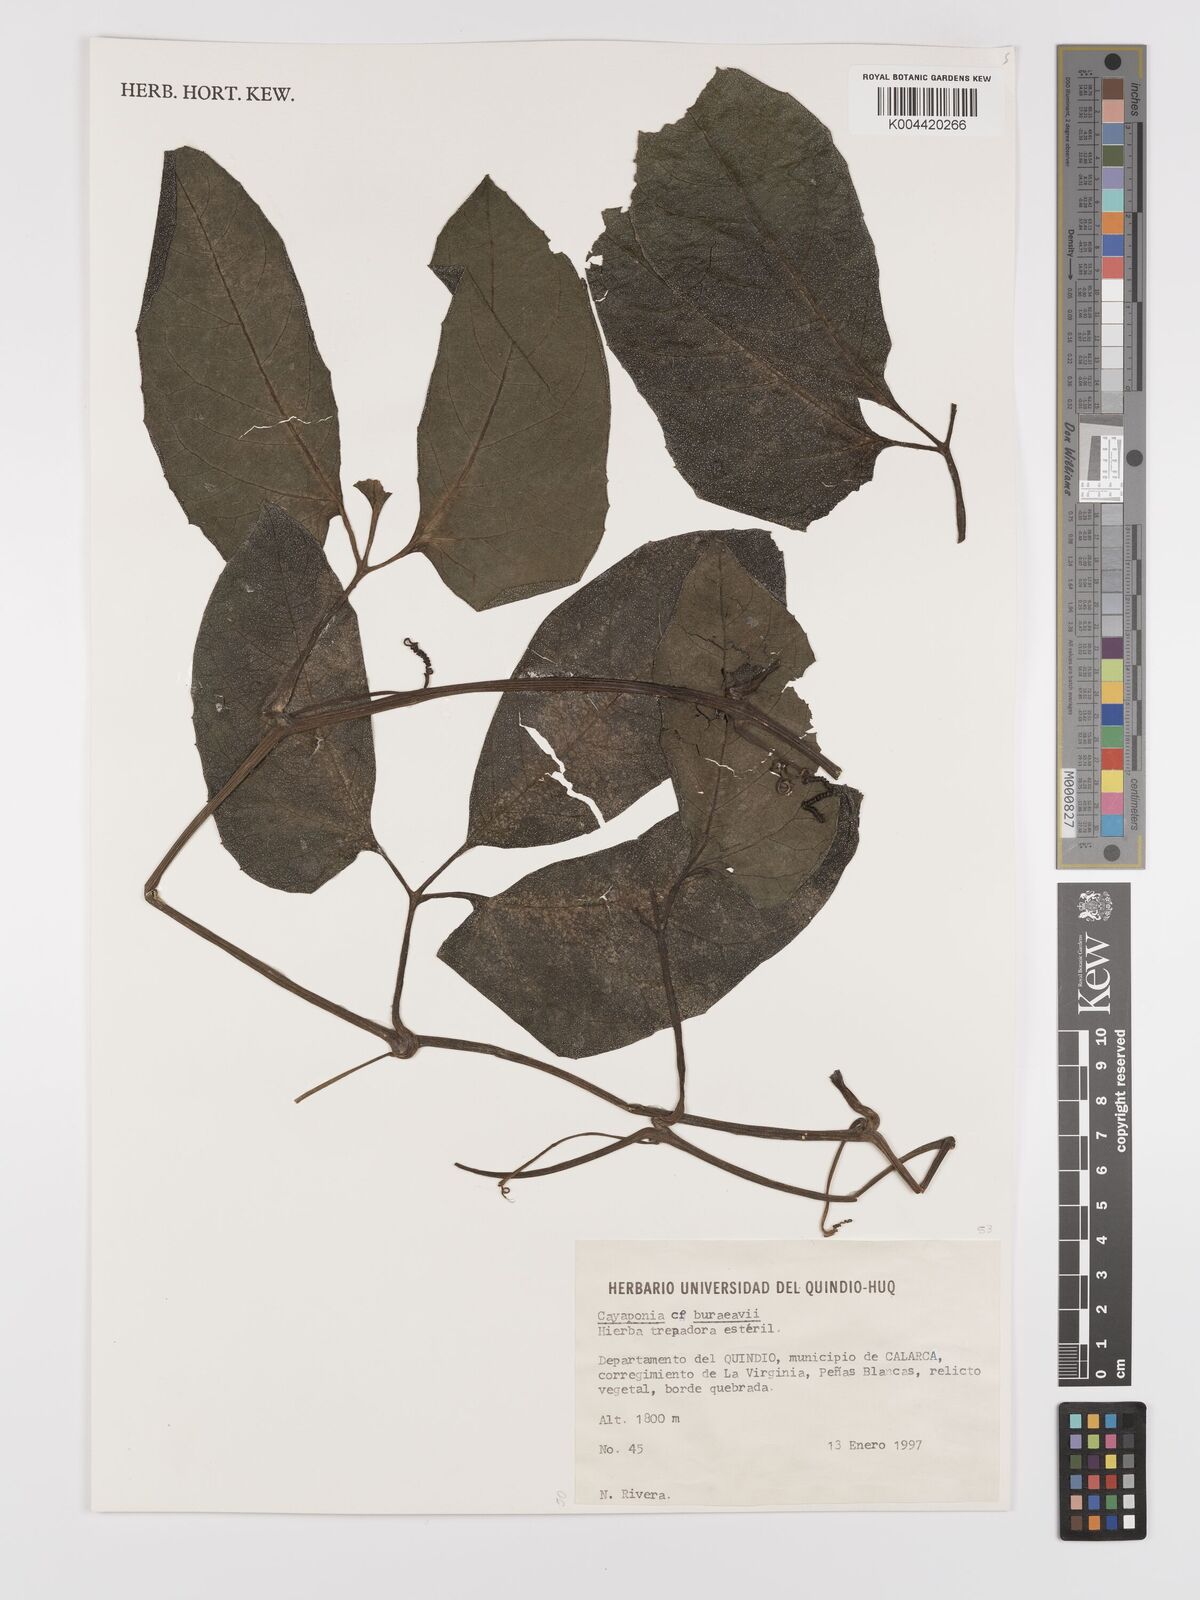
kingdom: Plantae
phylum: Tracheophyta
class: Magnoliopsida
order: Cucurbitales
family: Cucurbitaceae
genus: Cayaponia
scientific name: Cayaponia buraeavii
